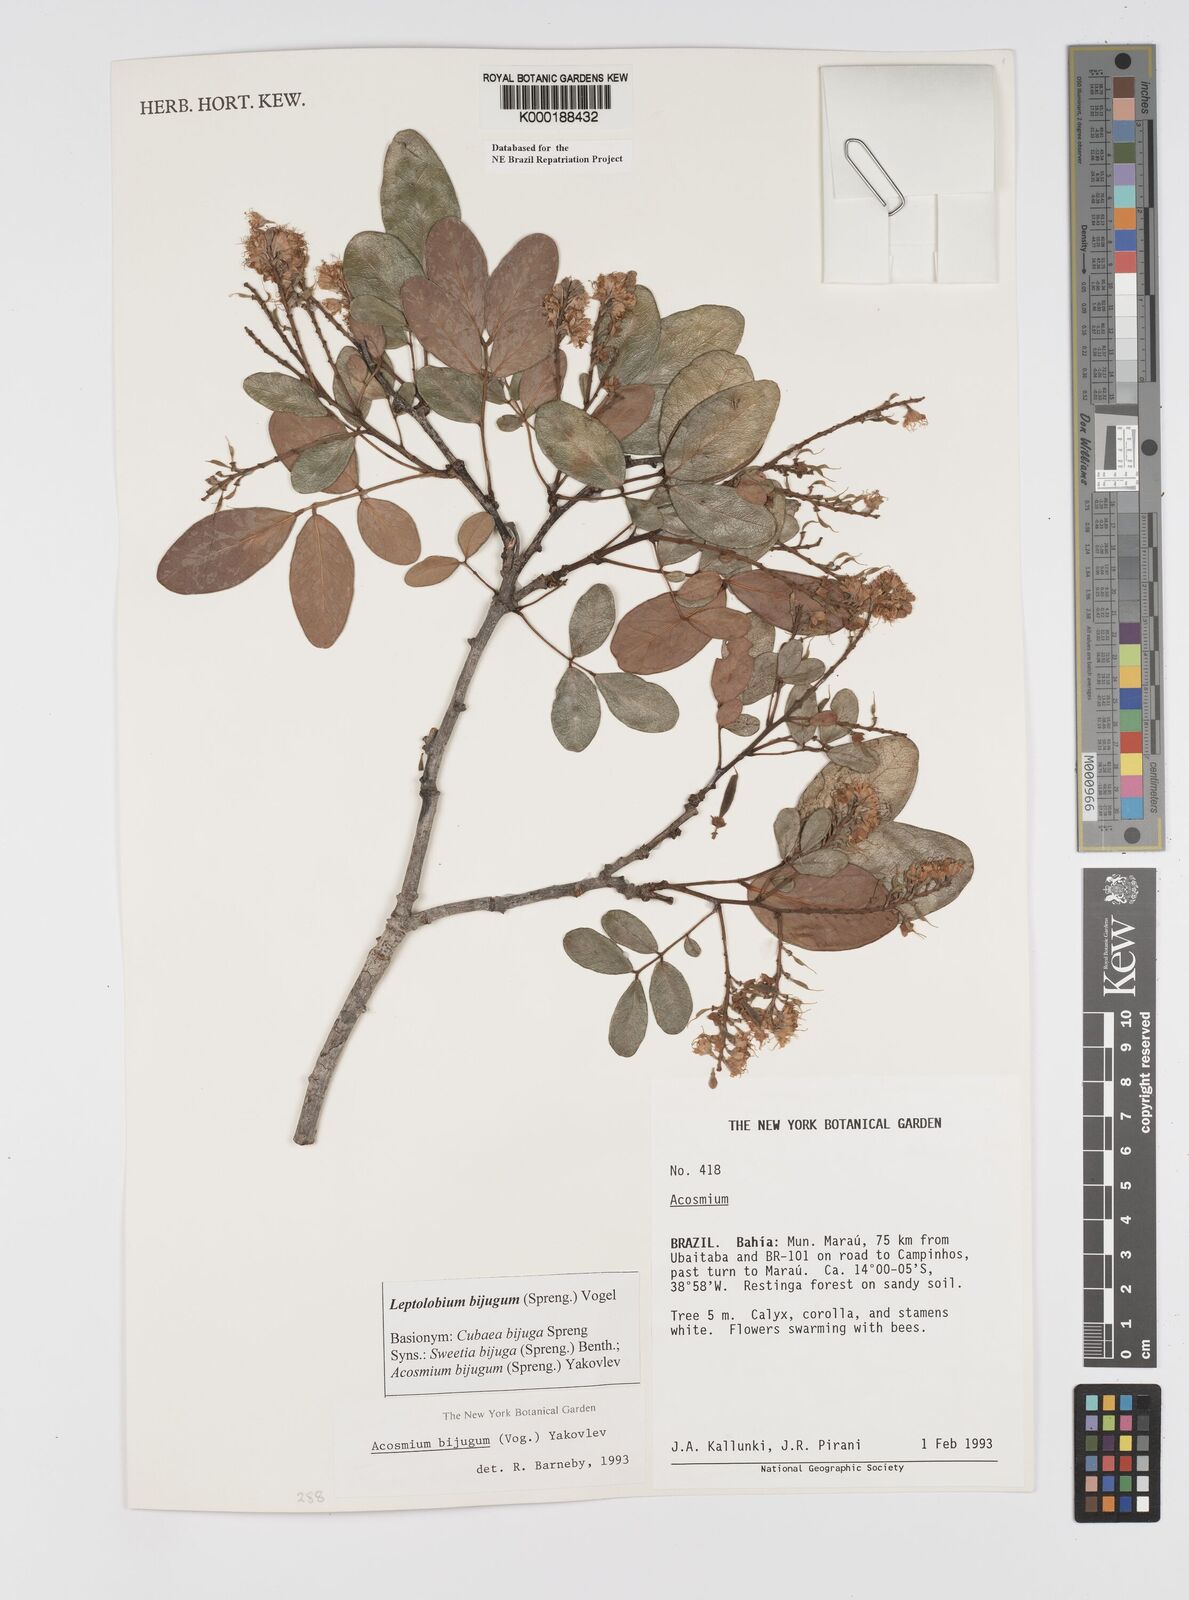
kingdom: Plantae
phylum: Tracheophyta
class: Magnoliopsida
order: Fabales
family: Fabaceae
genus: Leptolobium
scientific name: Leptolobium bijugum
